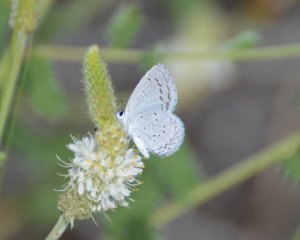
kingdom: Animalia
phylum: Arthropoda
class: Insecta
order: Lepidoptera
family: Lycaenidae
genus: Celastrina
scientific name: Celastrina ladon
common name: Echo Azure
